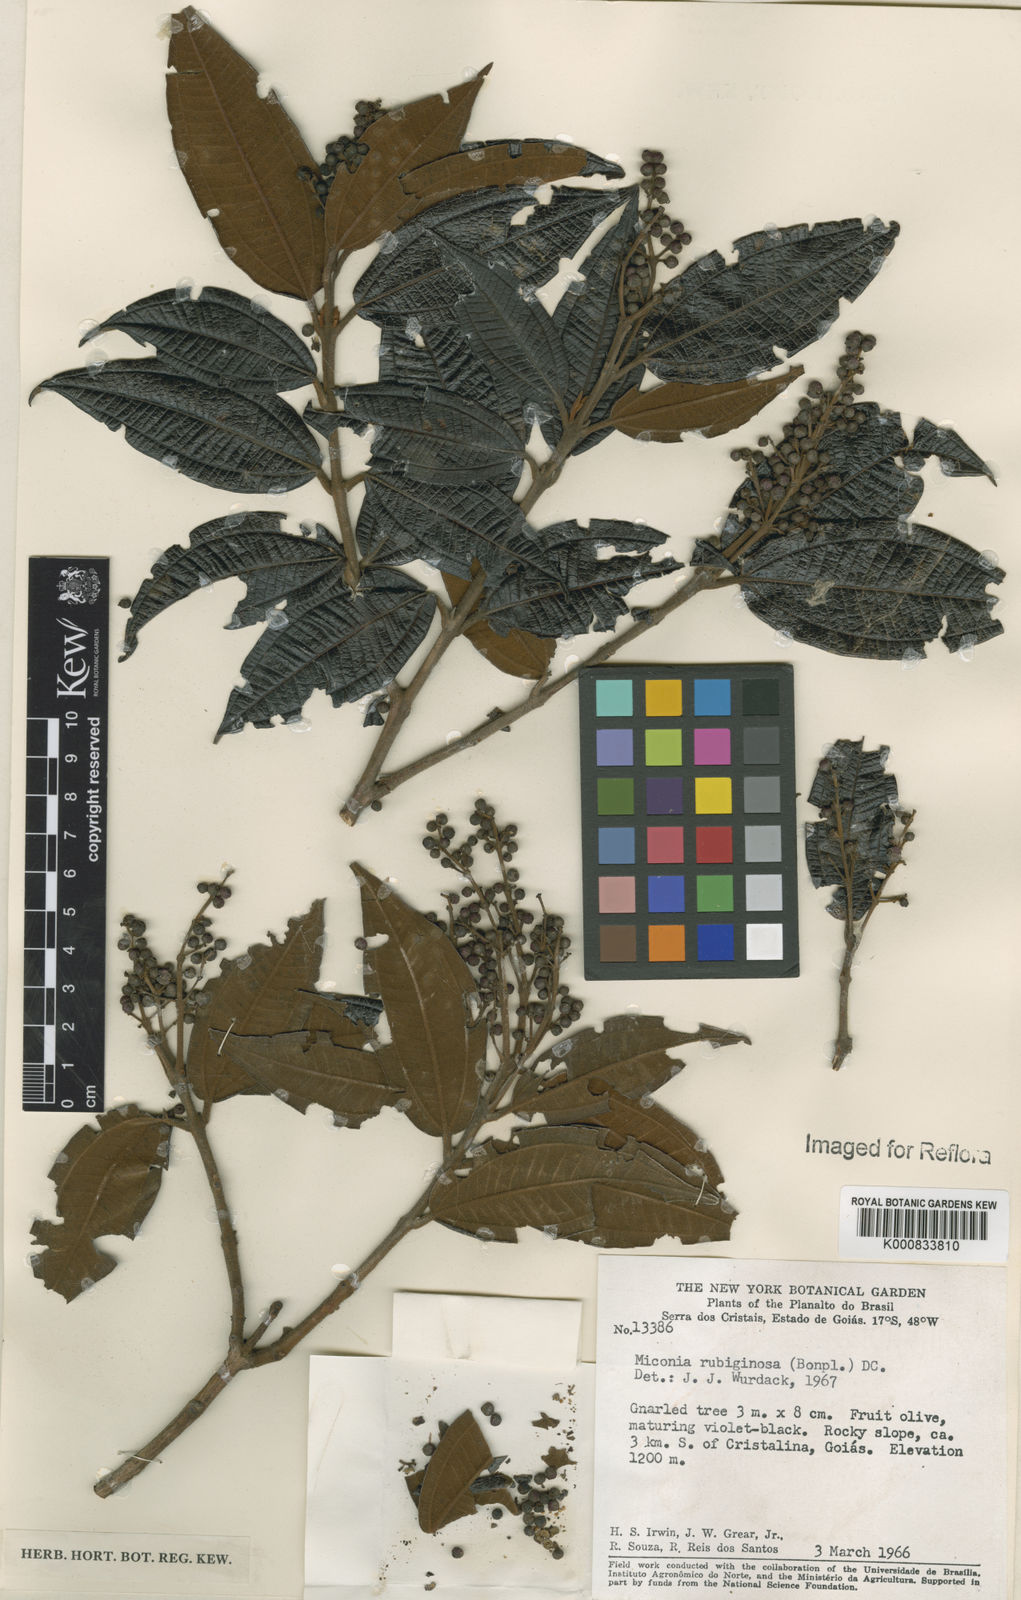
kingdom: Plantae
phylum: Tracheophyta
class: Magnoliopsida
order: Myrtales
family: Melastomataceae
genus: Miconia
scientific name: Miconia rubiginosa
